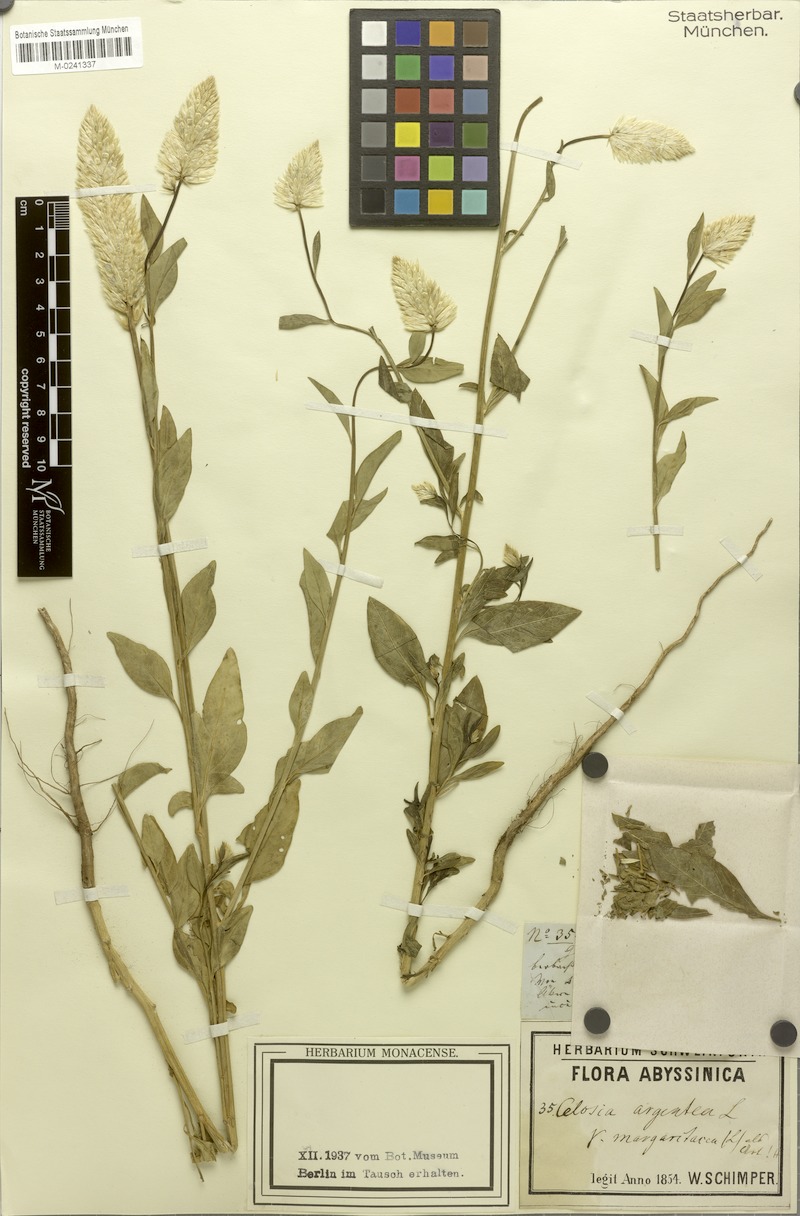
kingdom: Plantae
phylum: Tracheophyta
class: Magnoliopsida
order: Caryophyllales
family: Amaranthaceae
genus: Celosia
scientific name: Celosia argentea
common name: Feather cockscomb
